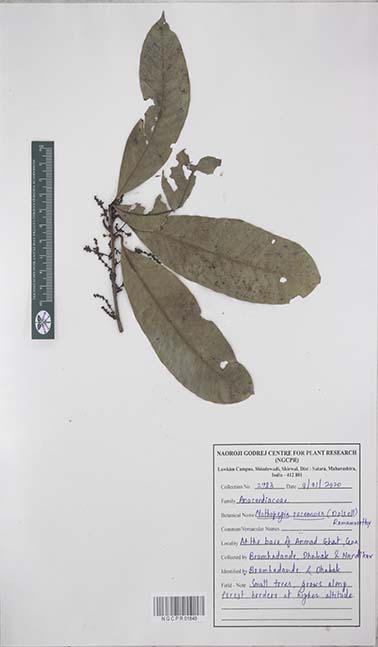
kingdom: Plantae
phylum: Tracheophyta
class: Magnoliopsida
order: Sapindales
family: Anacardiaceae
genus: Nothopegia
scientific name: Nothopegia castaneifolia
